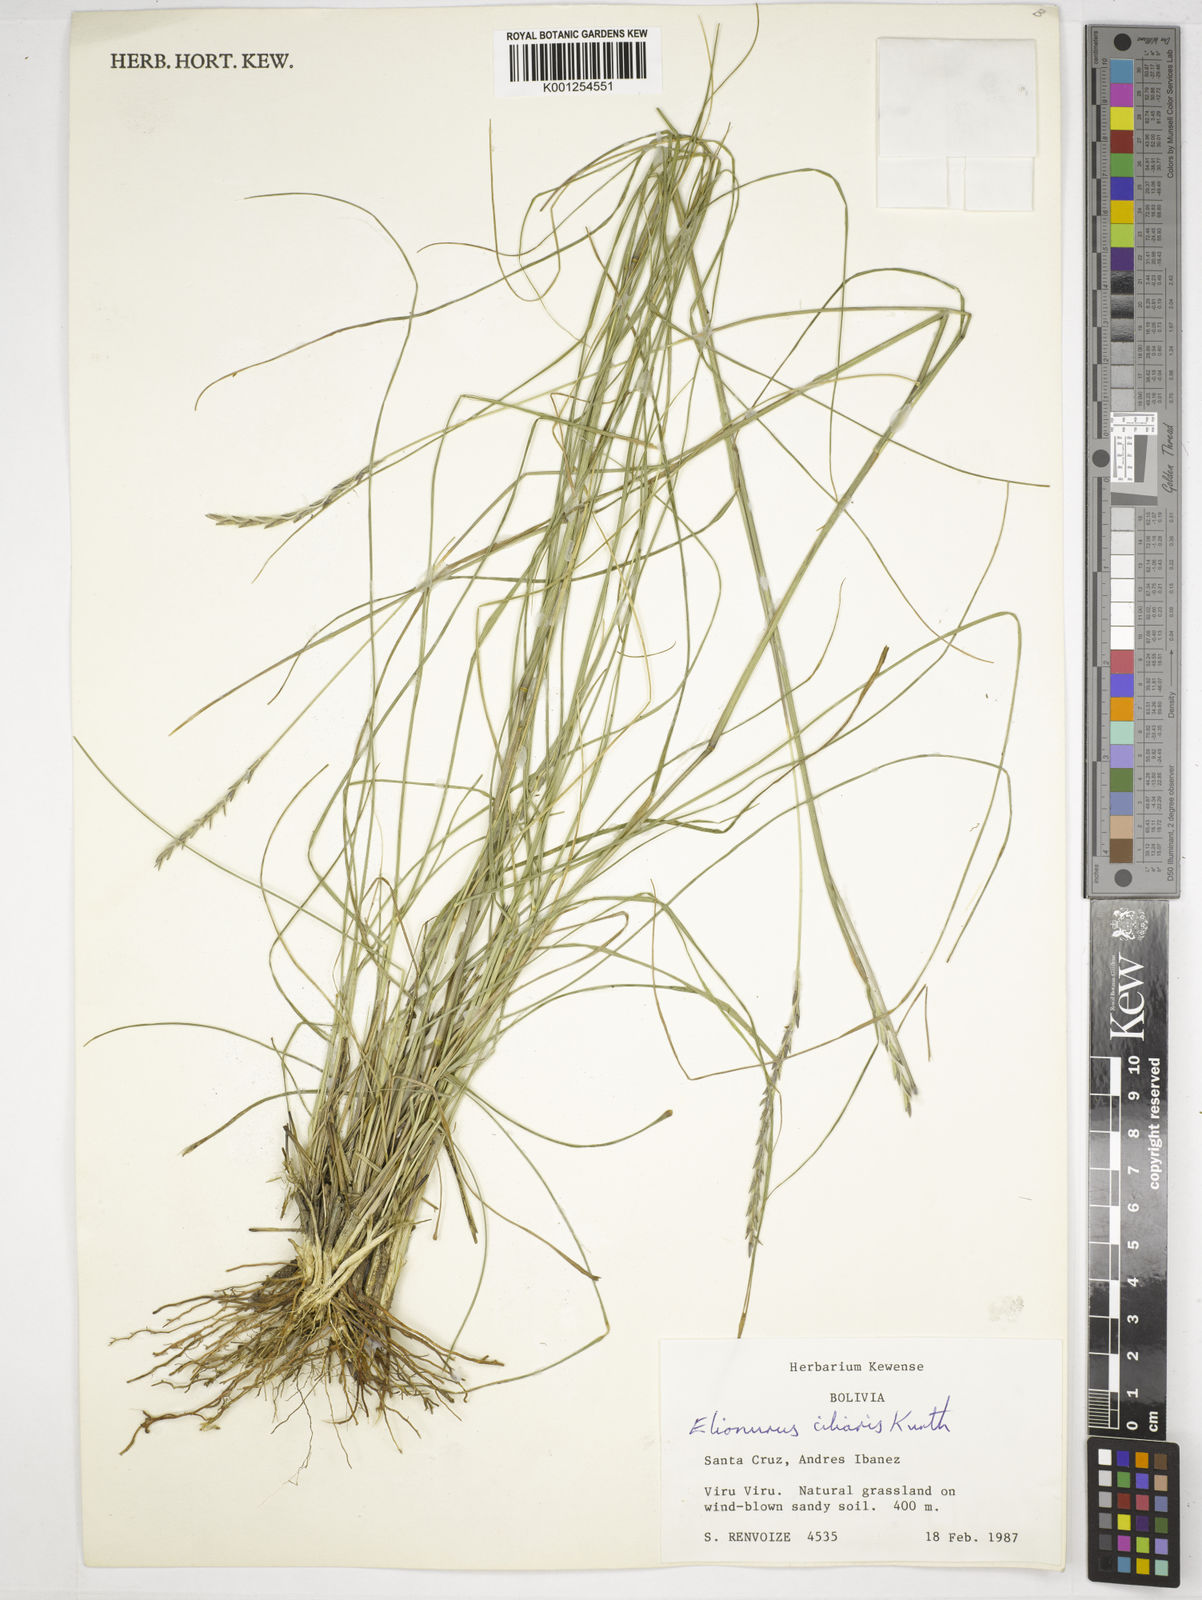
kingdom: Plantae
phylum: Tracheophyta
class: Liliopsida
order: Poales
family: Poaceae
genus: Elionurus
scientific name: Elionurus ciliaris
